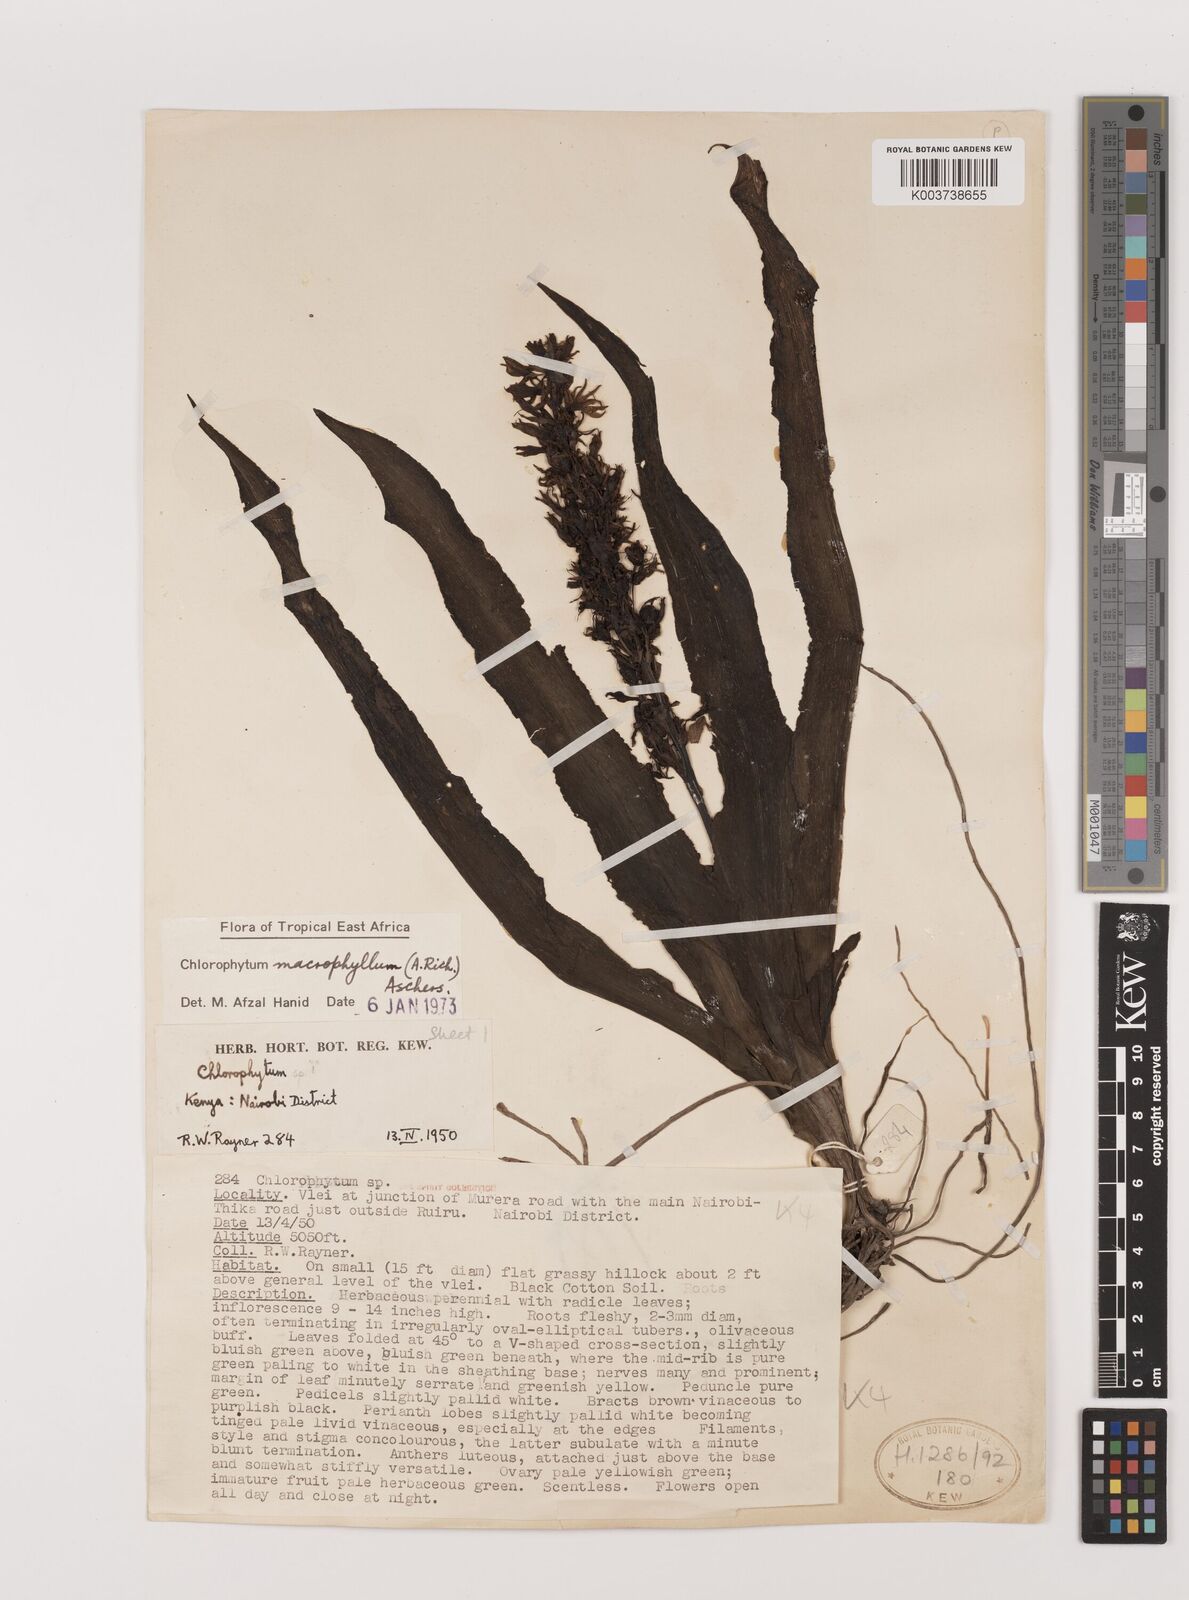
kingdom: Plantae
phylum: Tracheophyta
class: Liliopsida
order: Asparagales
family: Asparagaceae
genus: Chlorophytum
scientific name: Chlorophytum macrophyllum
